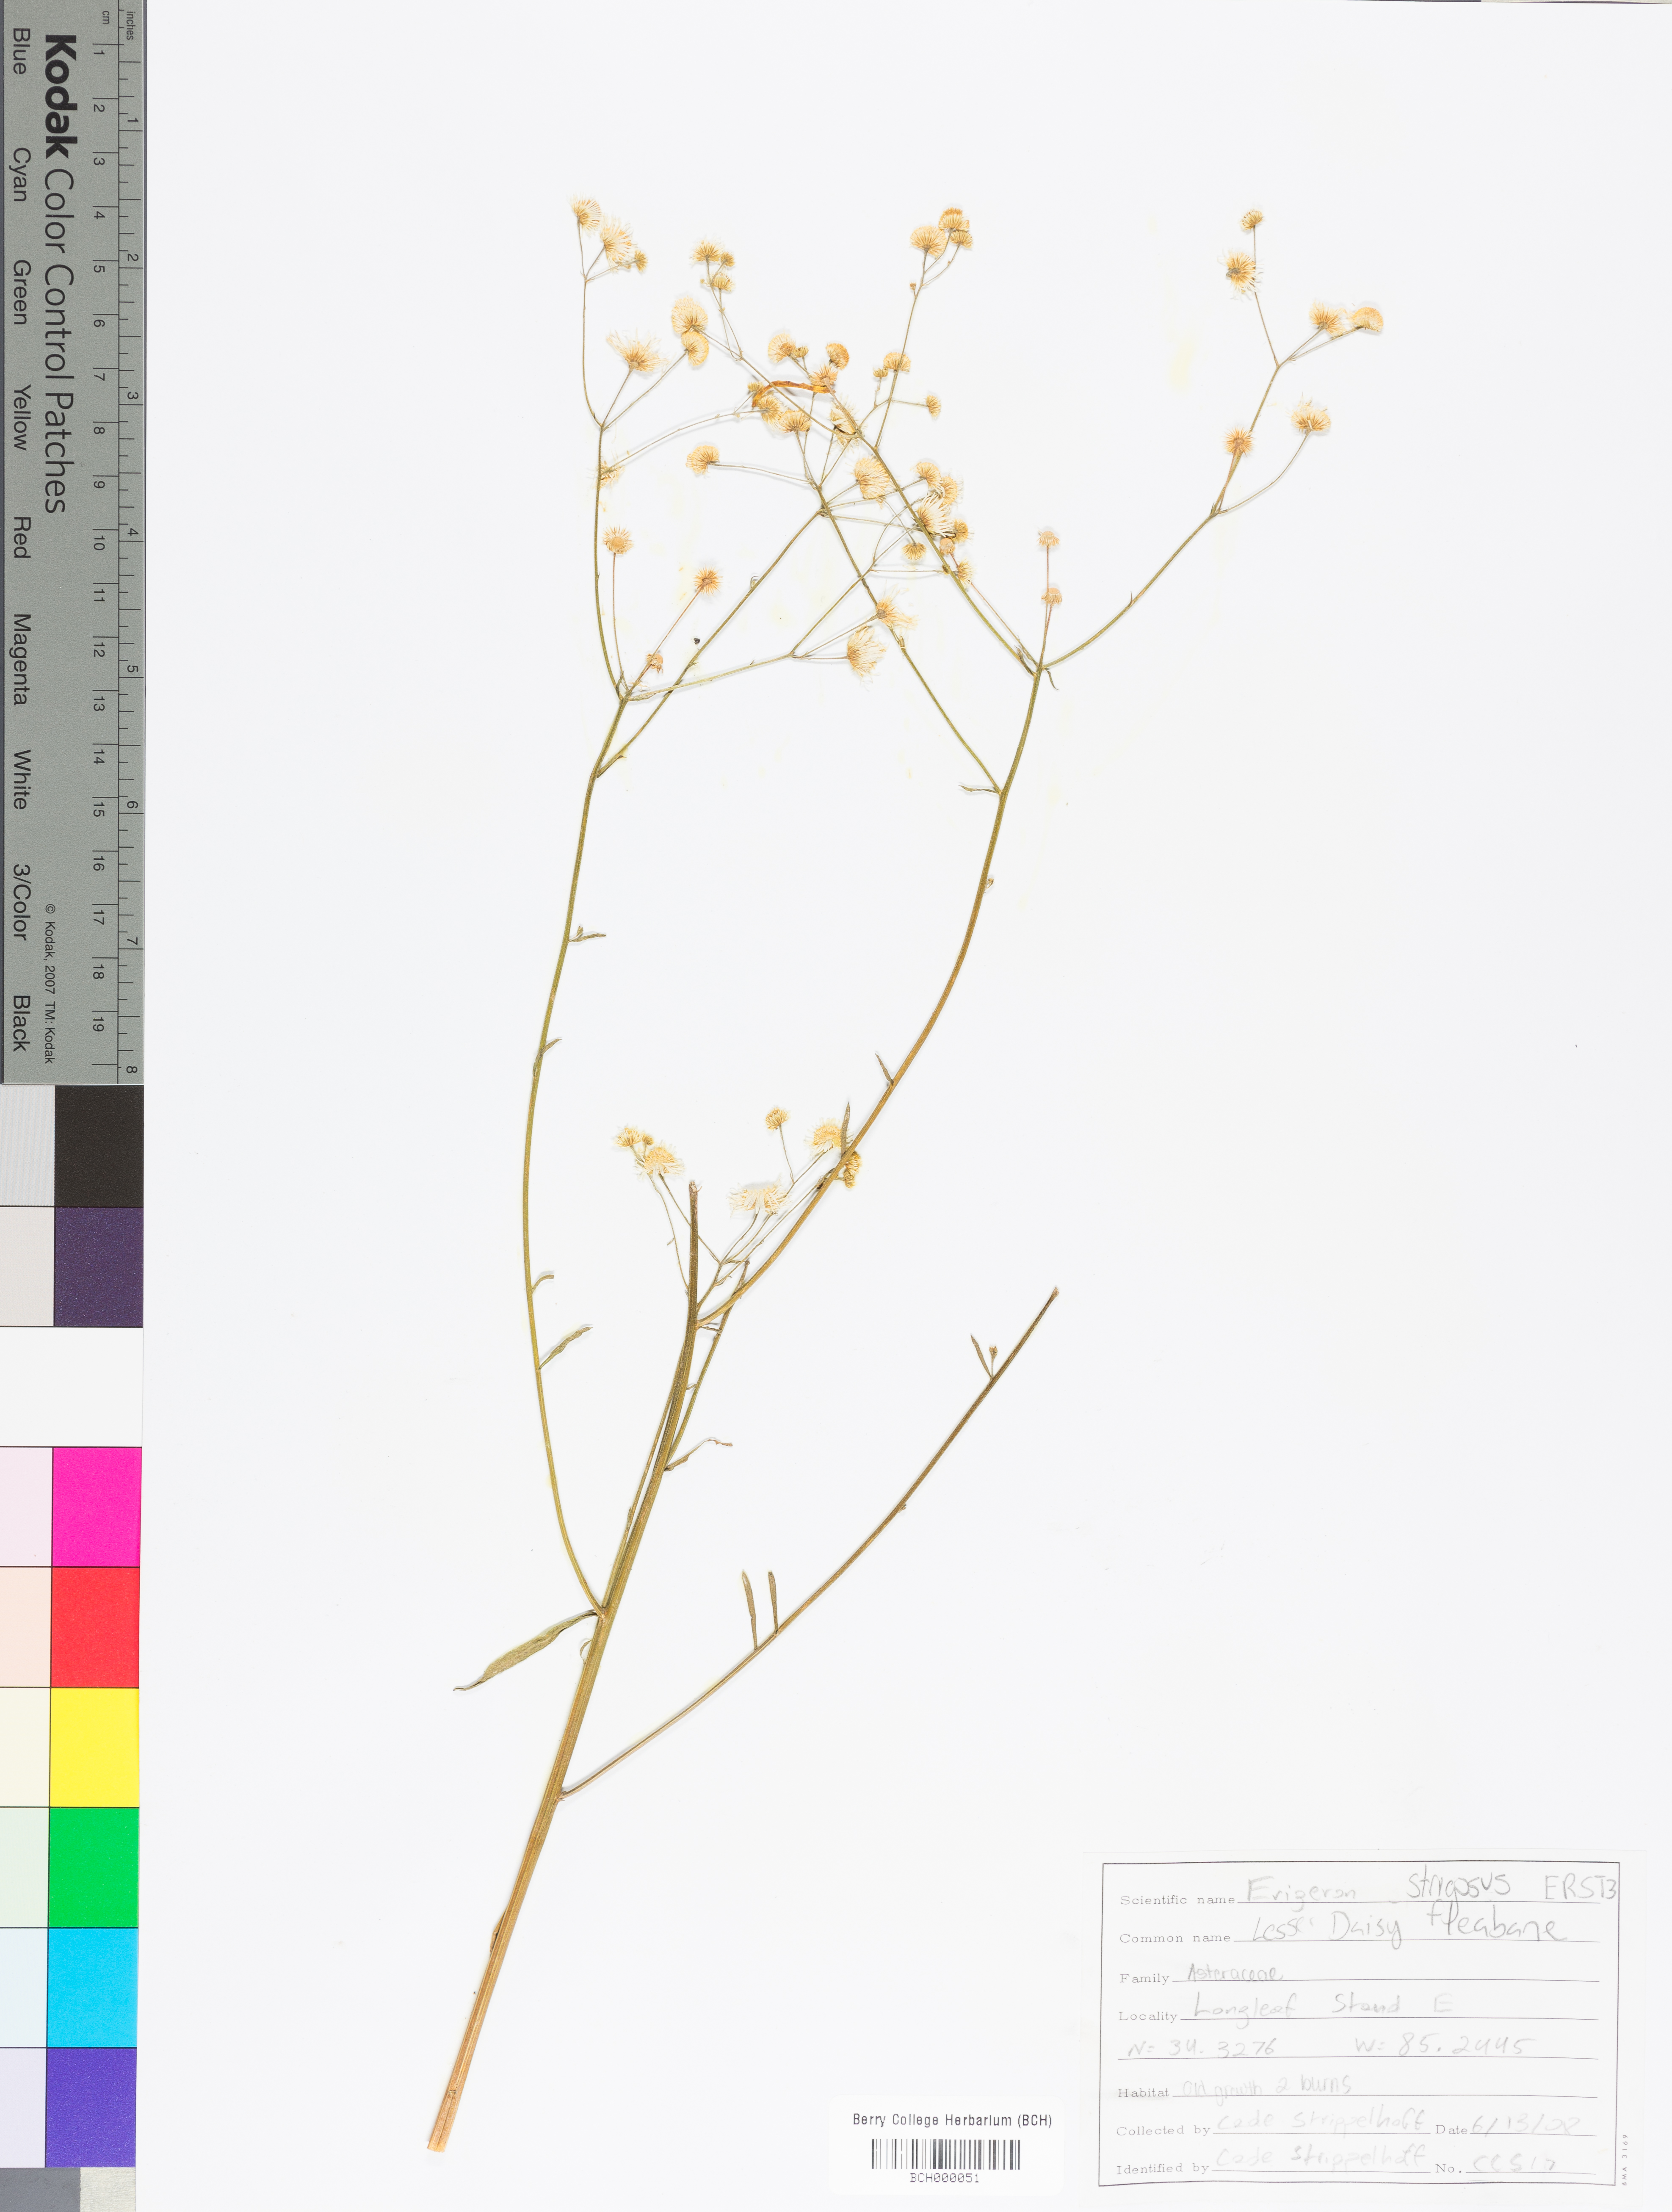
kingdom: Plantae
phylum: Tracheophyta
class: Magnoliopsida
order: Asterales
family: Asteraceae
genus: Erigeron
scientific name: Erigeron strigosus
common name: Common eastern fleabane
